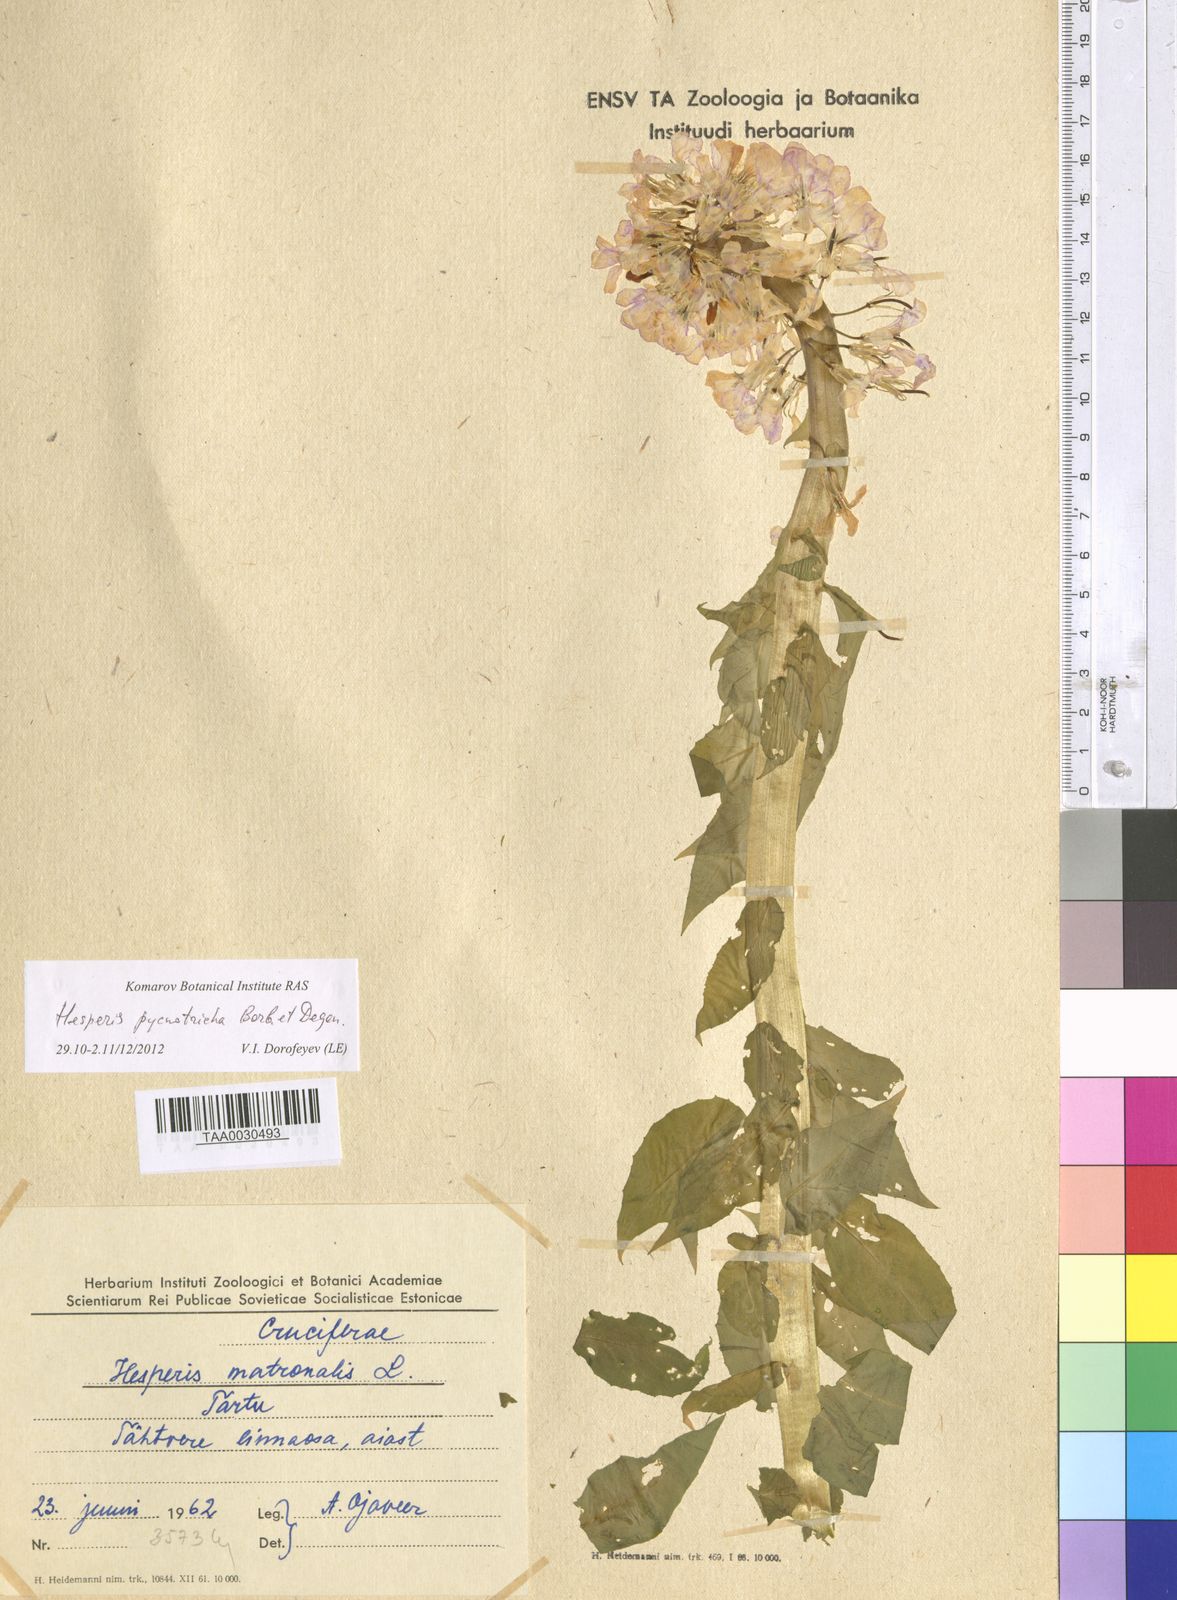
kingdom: Plantae
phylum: Tracheophyta
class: Magnoliopsida
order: Brassicales
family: Brassicaceae
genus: Hesperis
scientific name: Hesperis pycnotricha
